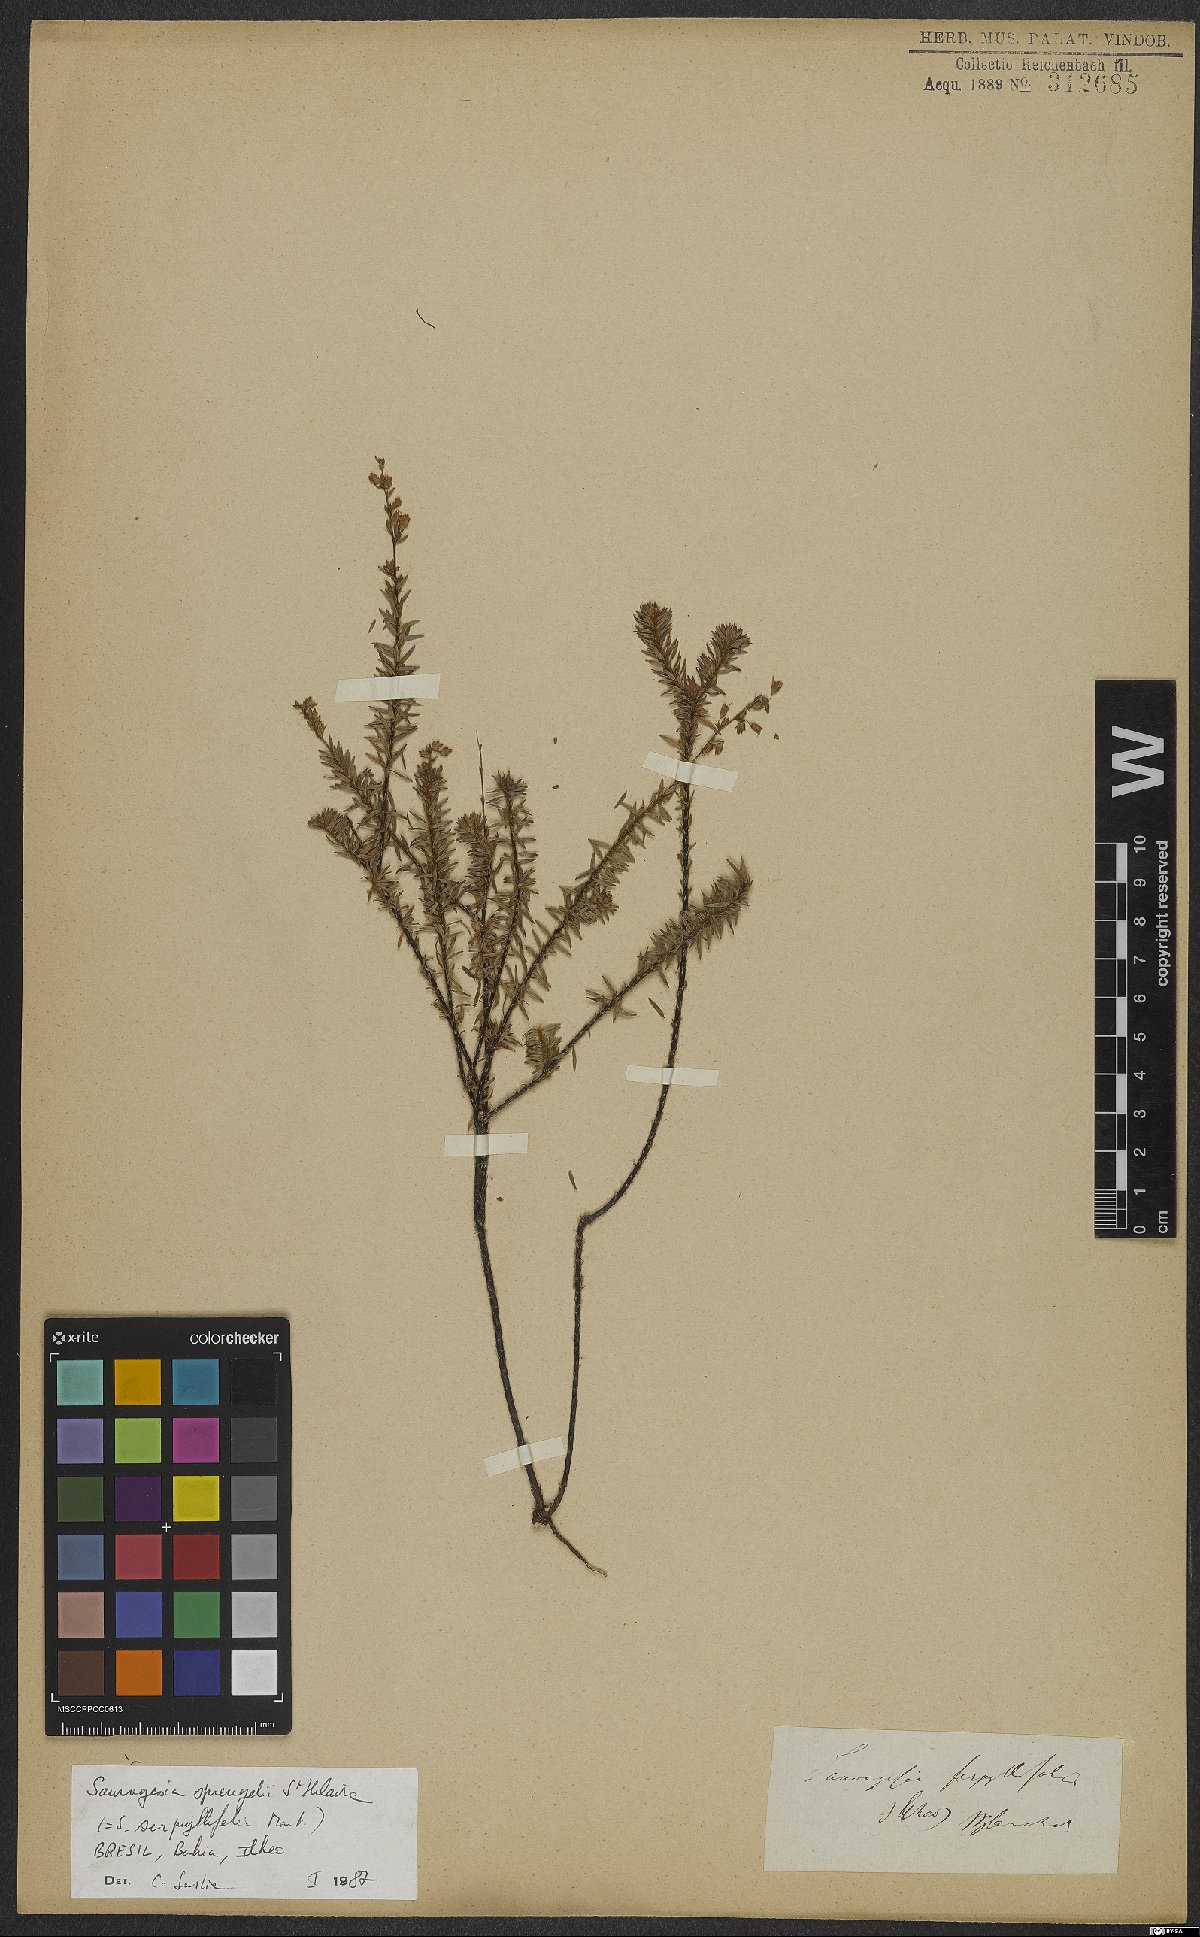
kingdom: Plantae
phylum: Tracheophyta
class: Magnoliopsida
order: Malpighiales
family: Ochnaceae
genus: Sauvagesia
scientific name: Sauvagesia tenella
